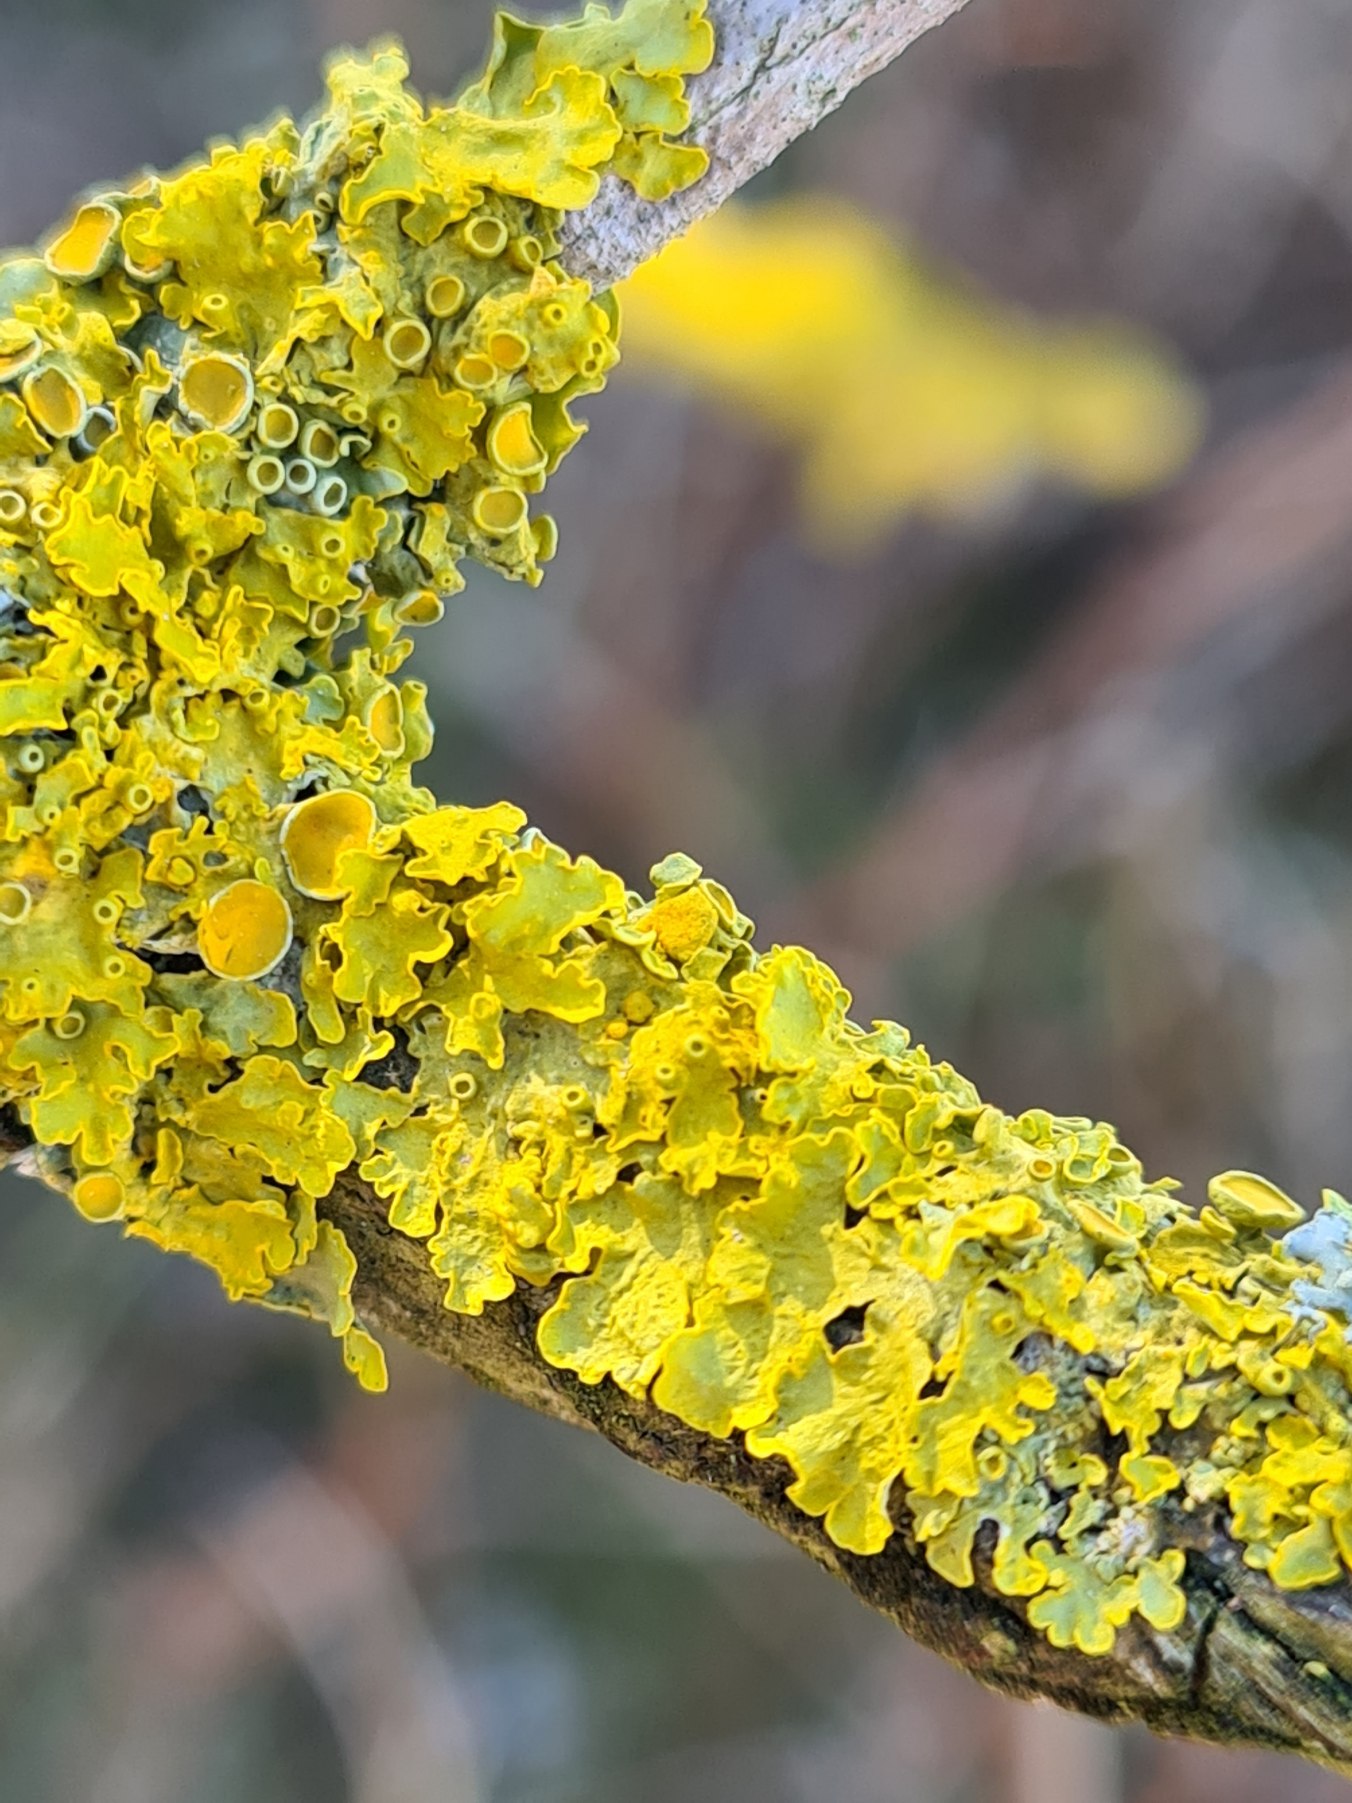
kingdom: Fungi
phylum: Ascomycota
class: Lecanoromycetes
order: Teloschistales
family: Teloschistaceae
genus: Xanthoria
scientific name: Xanthoria parietina
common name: Almindelig væggelav
